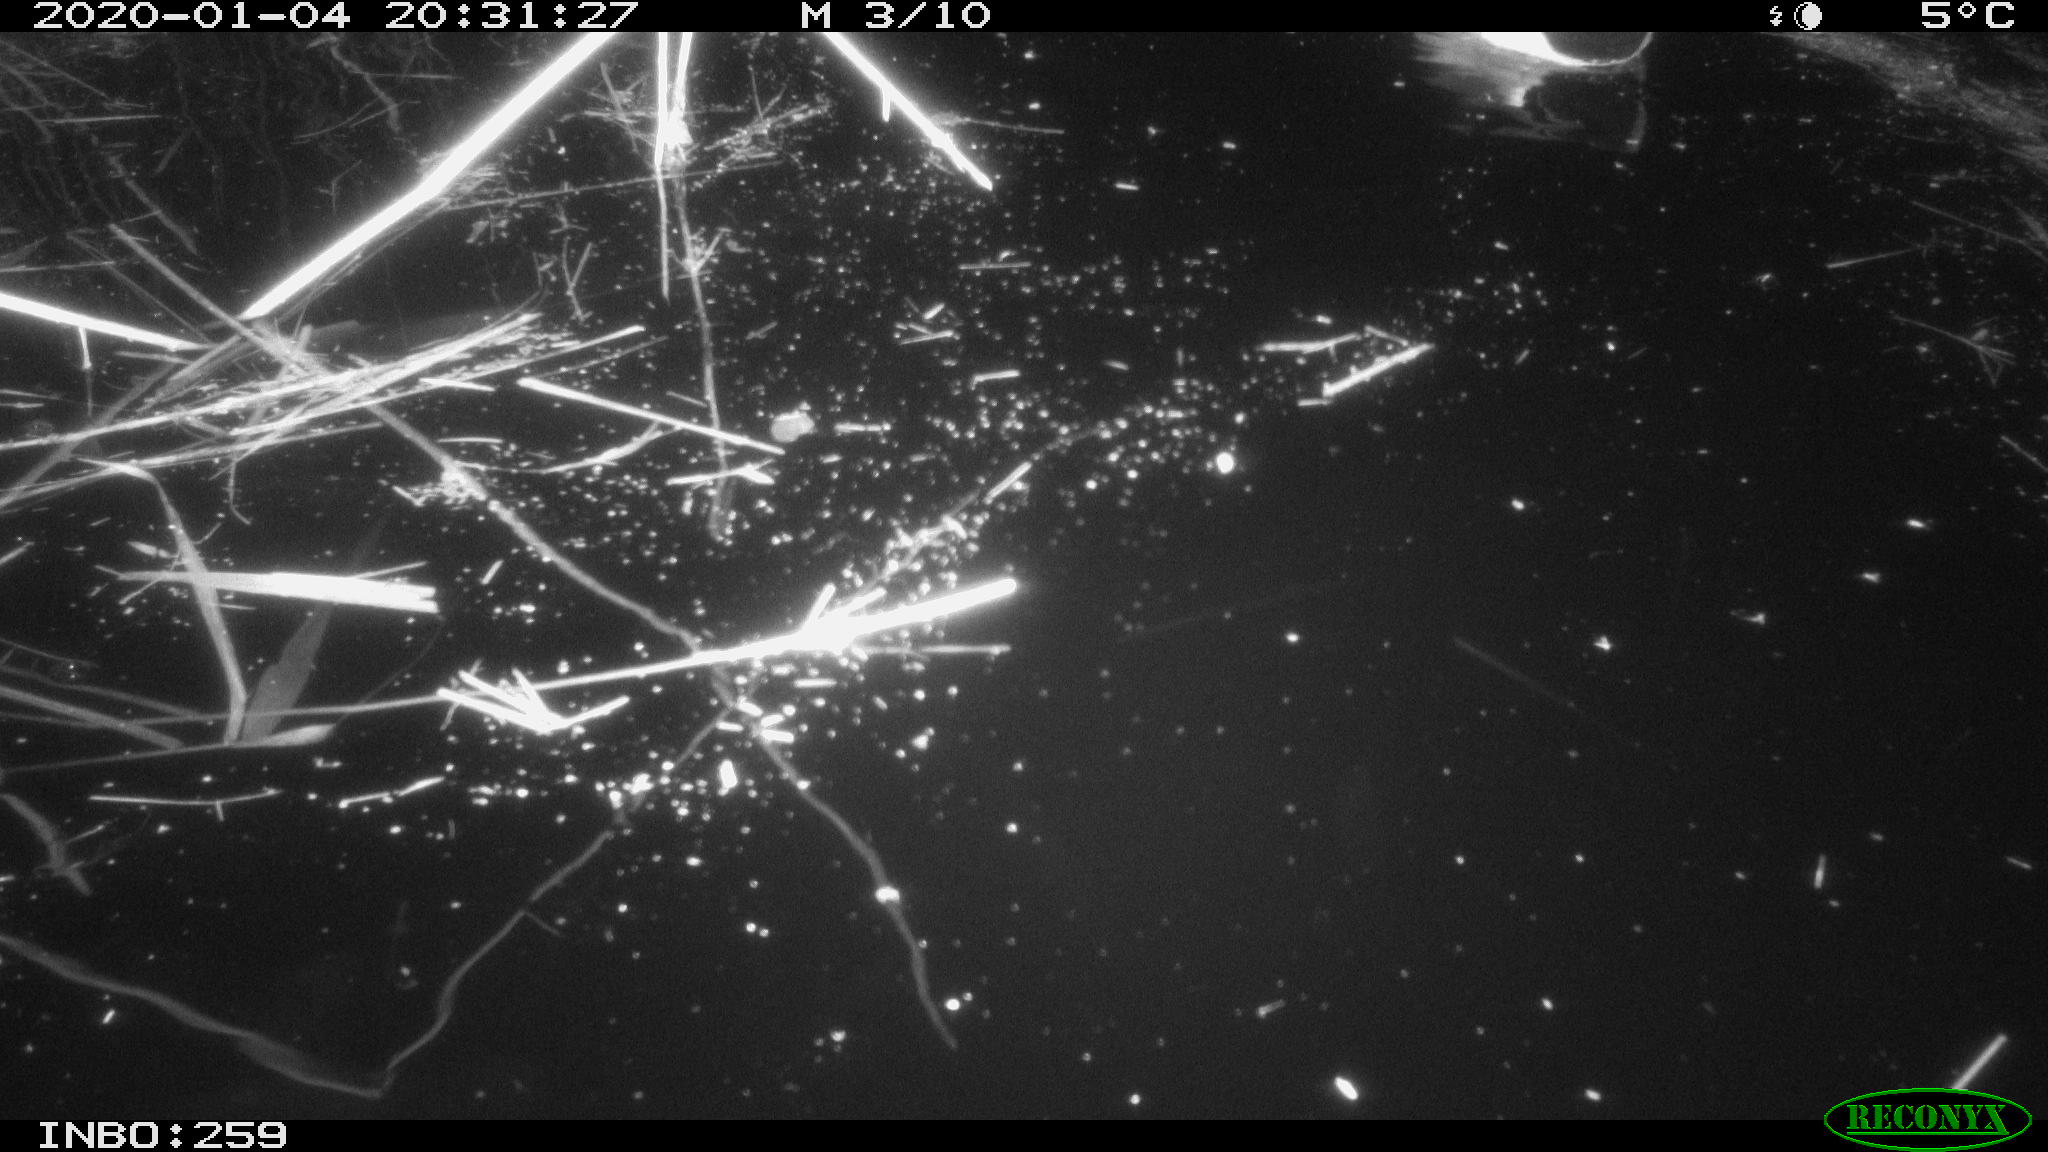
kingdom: Animalia
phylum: Chordata
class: Aves
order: Anseriformes
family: Anatidae
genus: Anas
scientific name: Anas platyrhynchos
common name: Mallard
